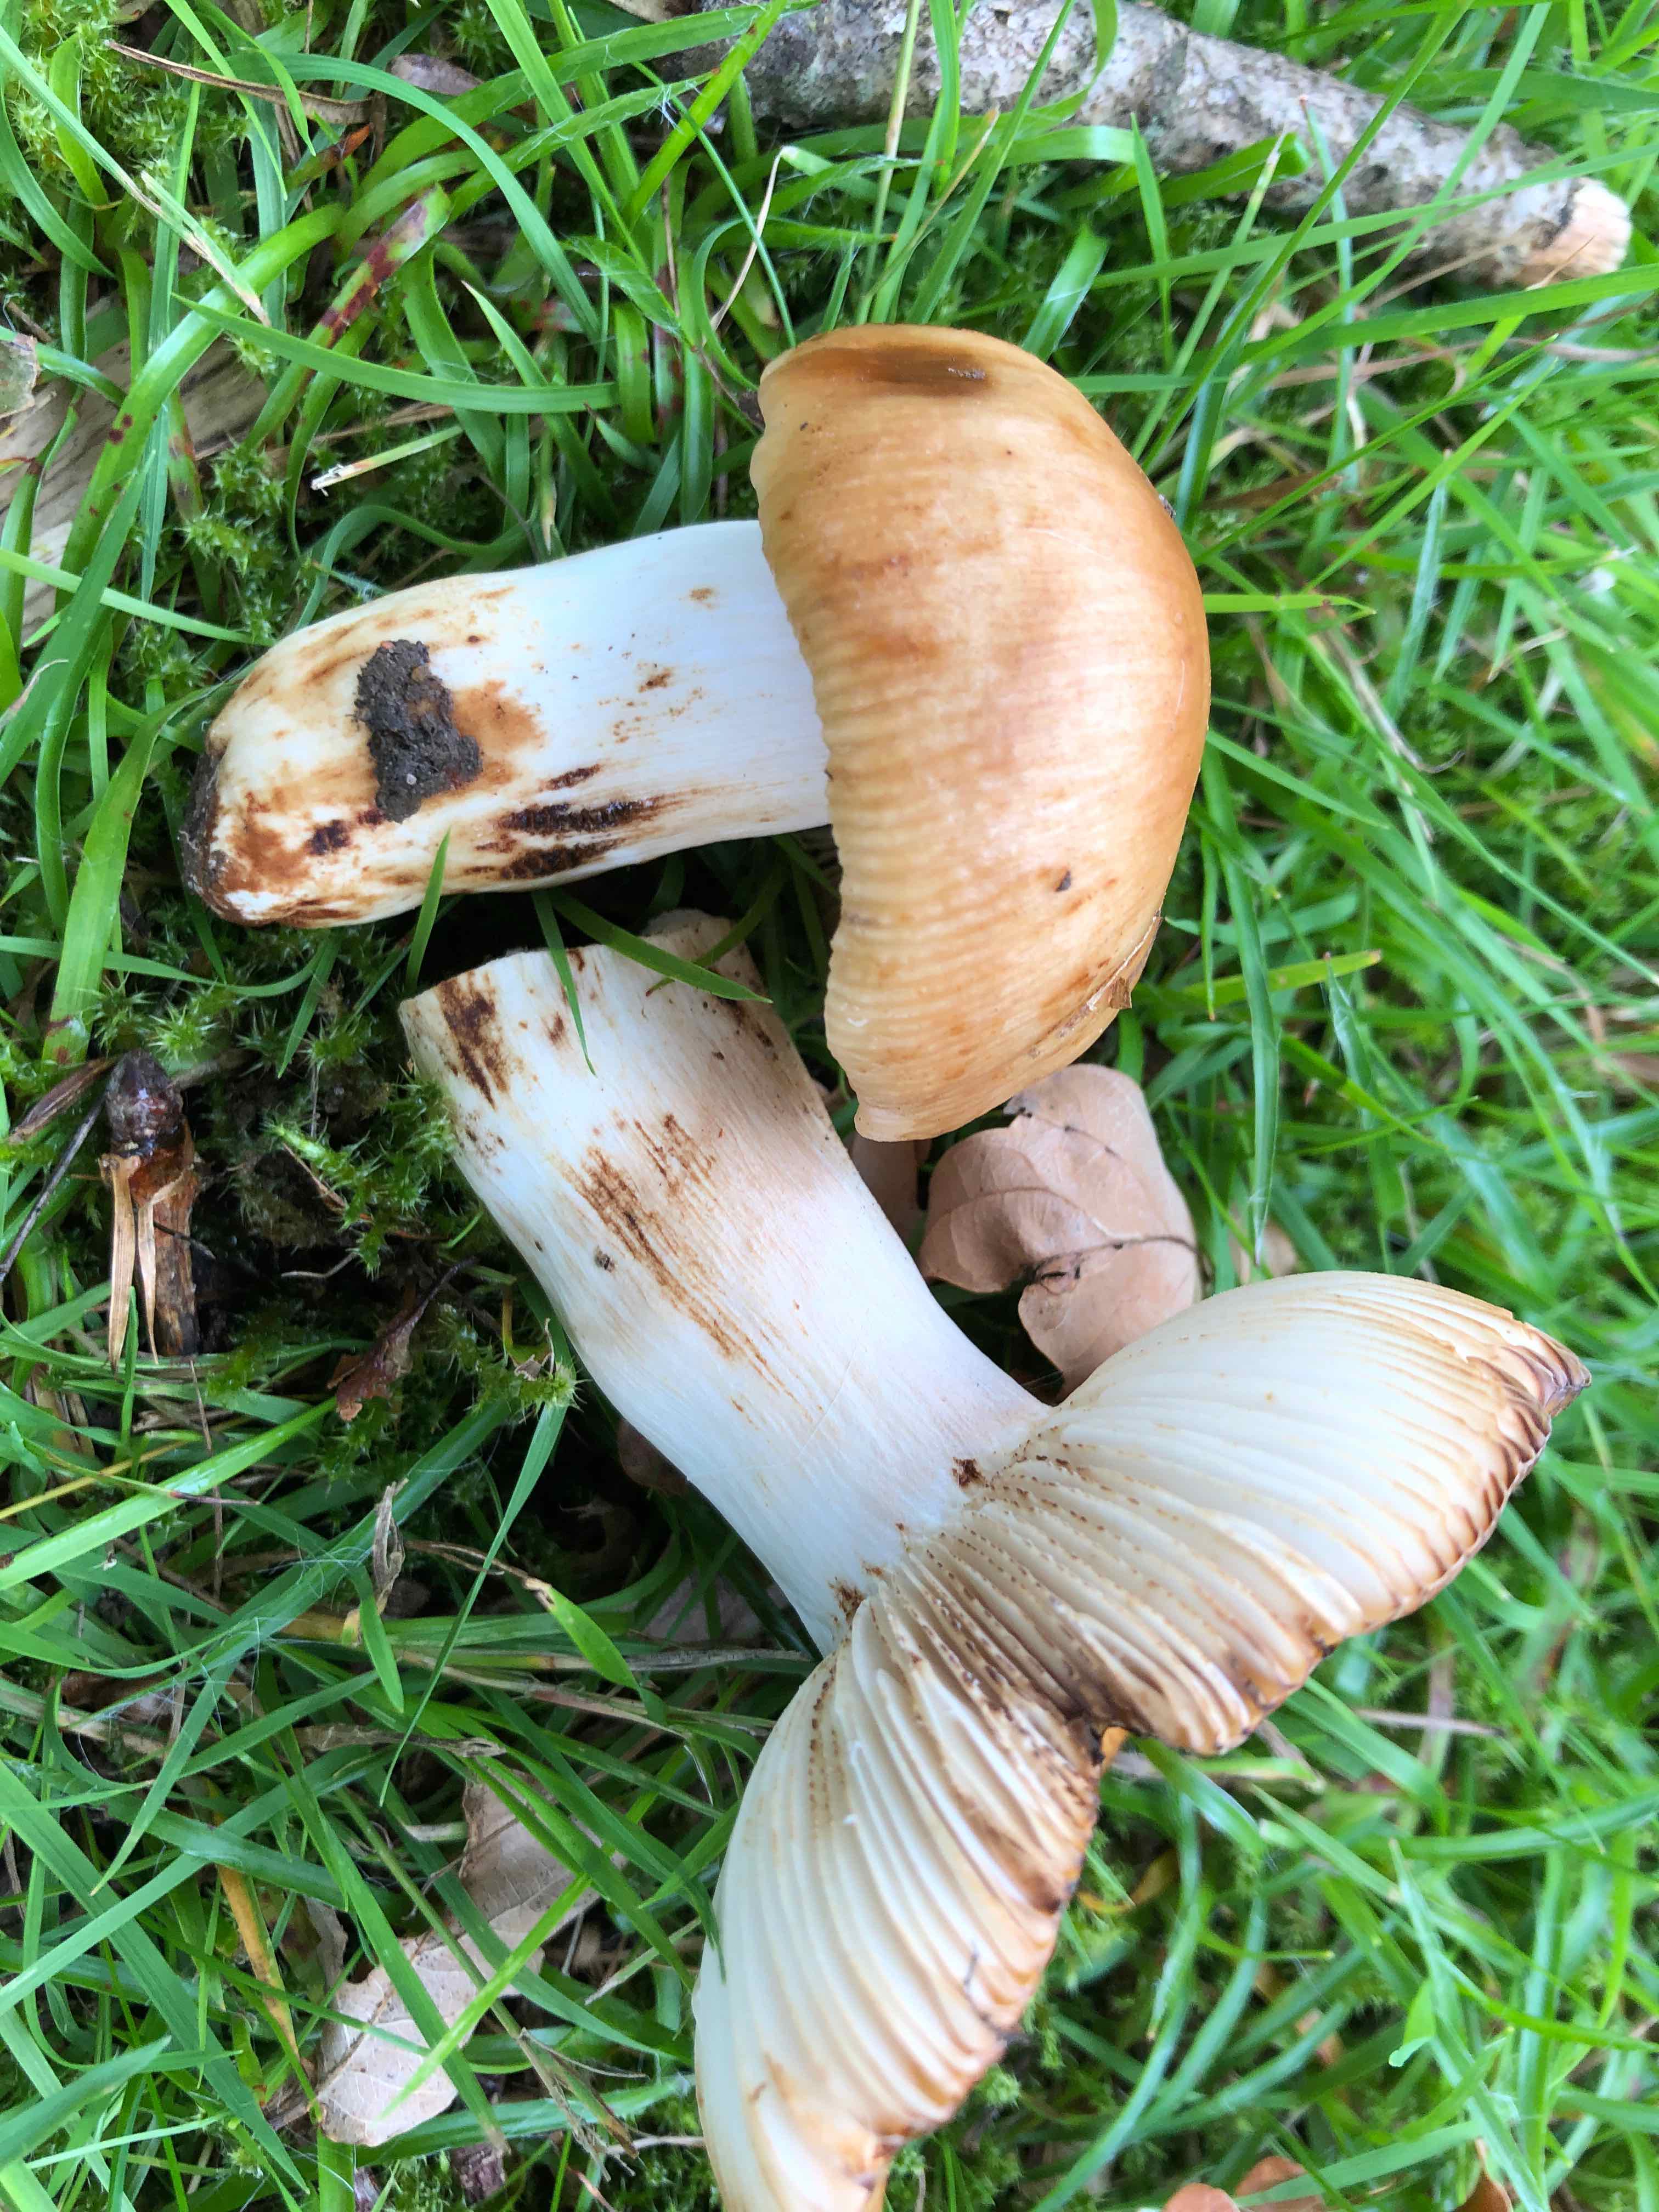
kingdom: Fungi
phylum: Basidiomycota
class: Agaricomycetes
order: Russulales
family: Russulaceae
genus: Russula
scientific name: Russula grata
